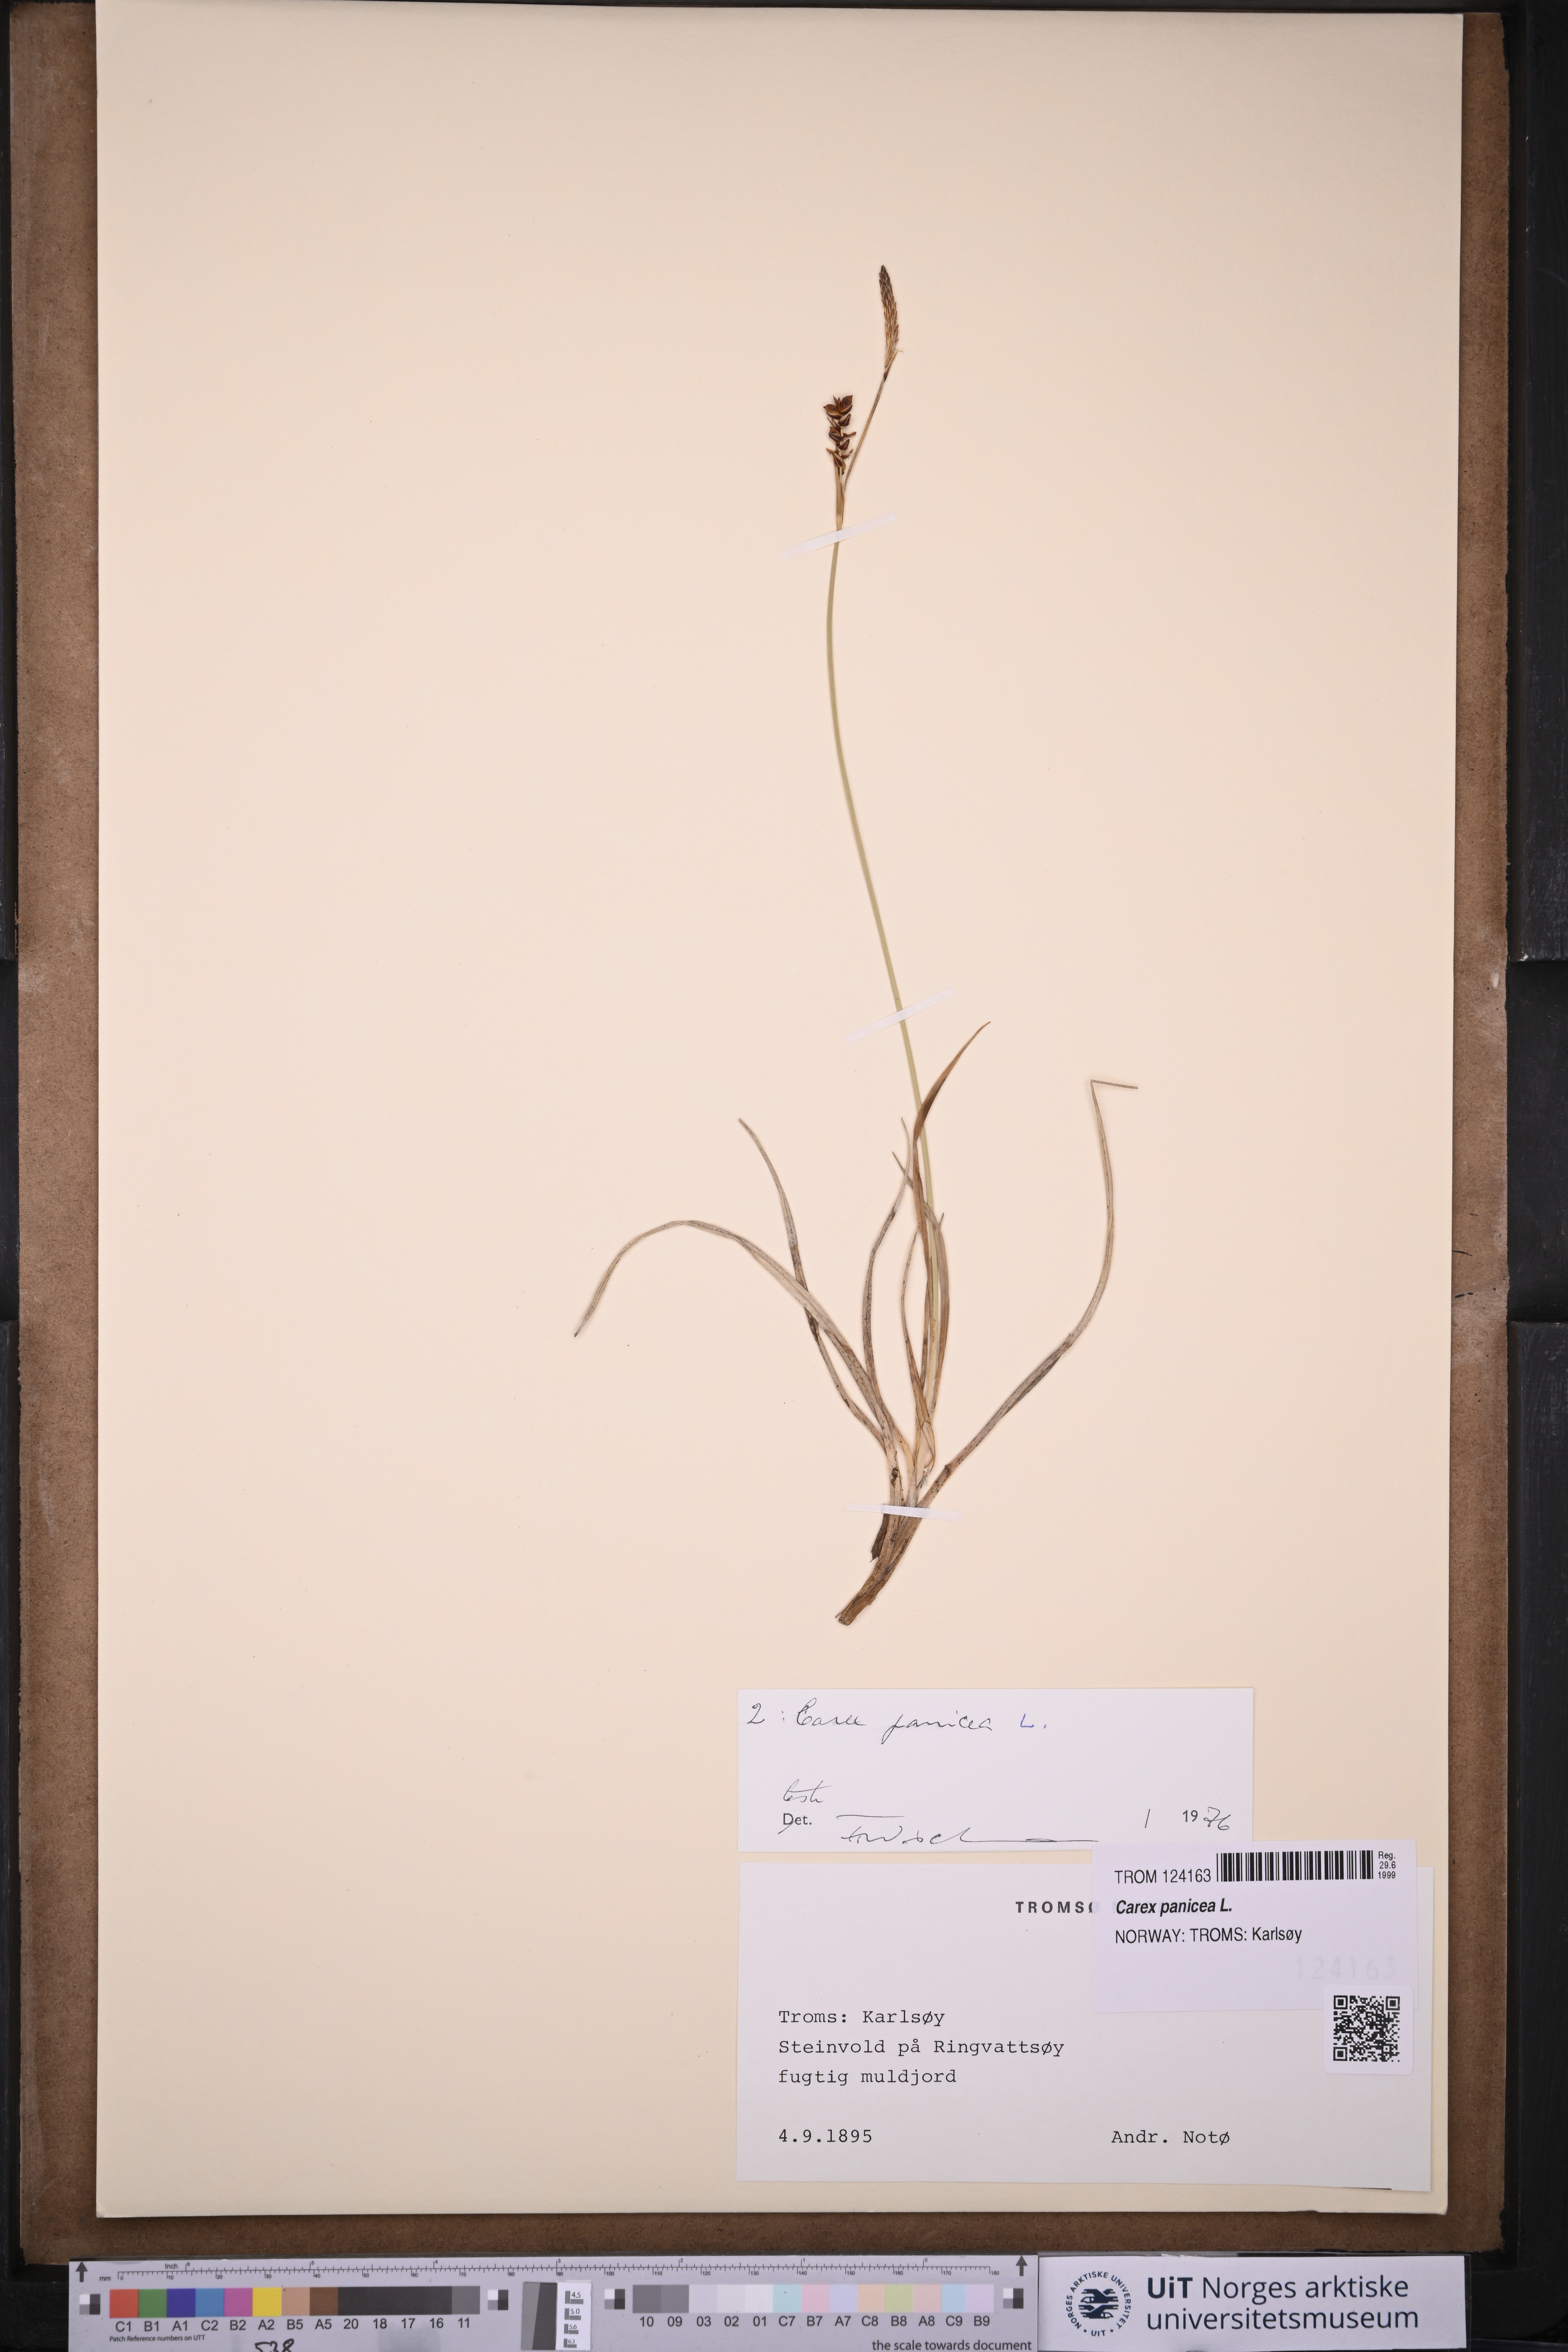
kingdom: Plantae
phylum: Tracheophyta
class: Liliopsida
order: Poales
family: Cyperaceae
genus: Carex
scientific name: Carex panicea
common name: Carnation sedge
